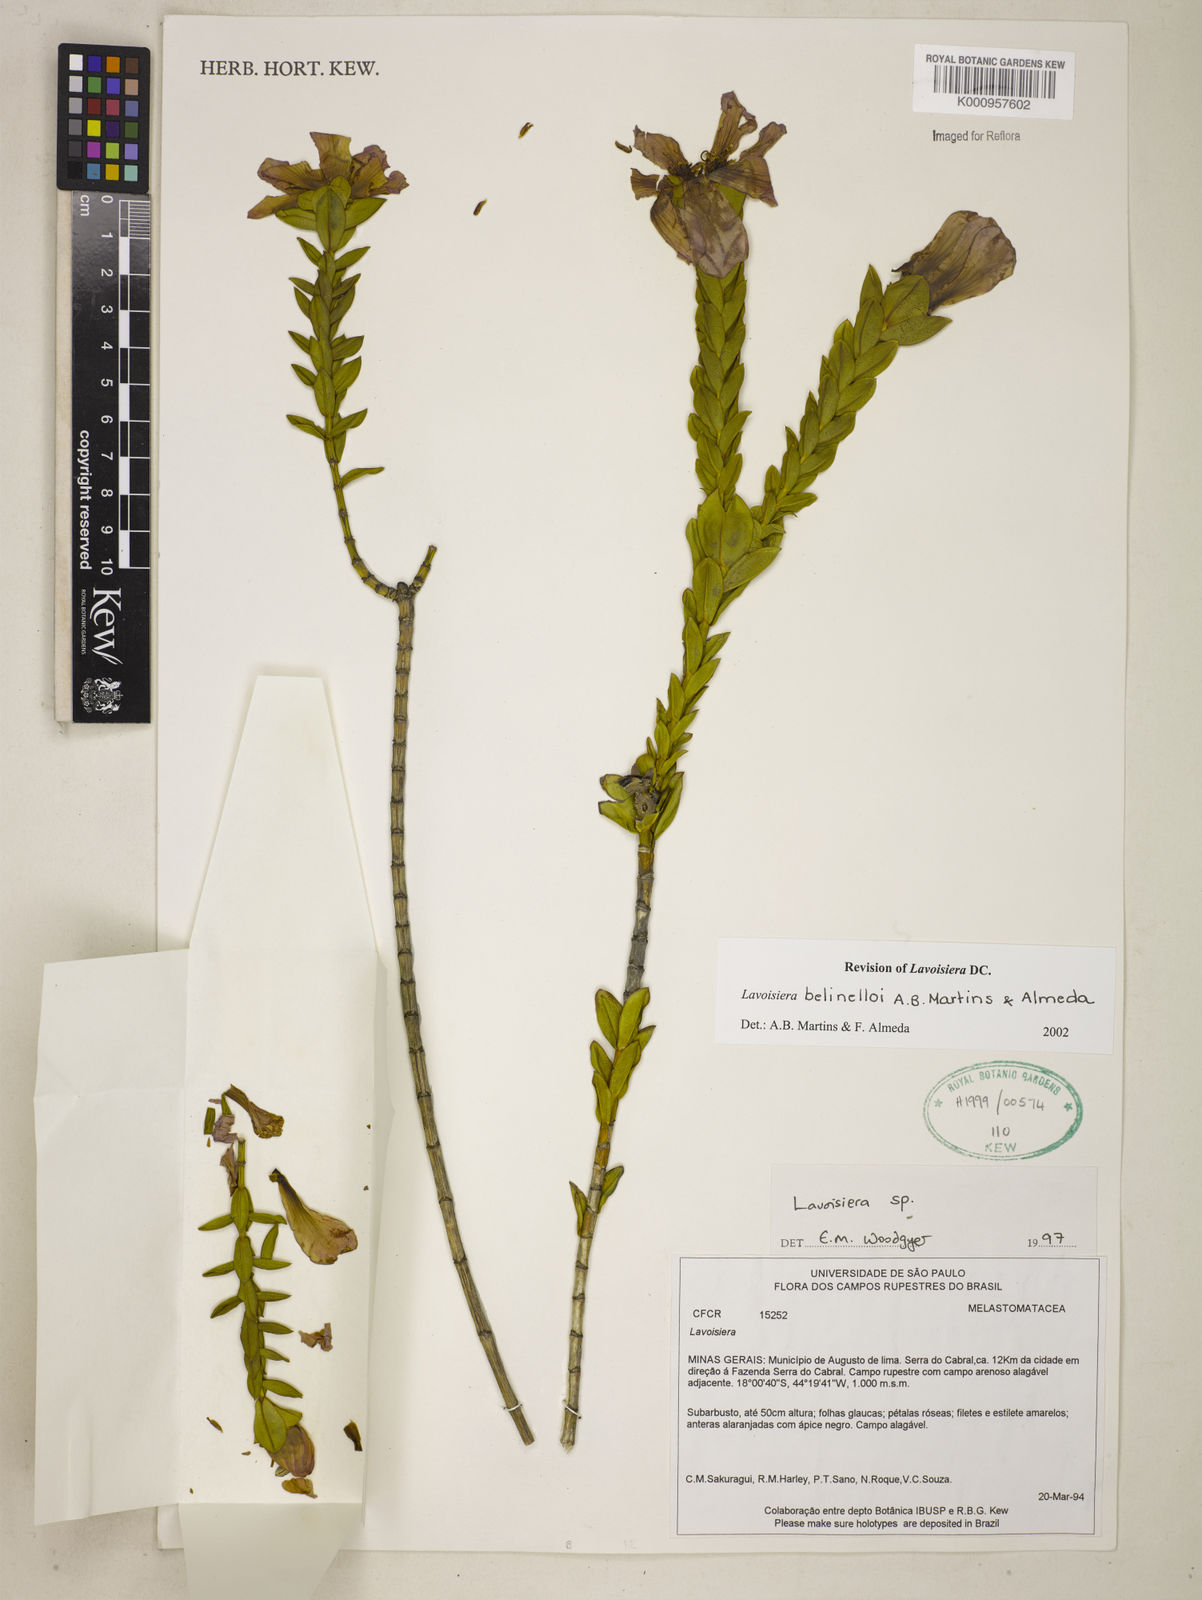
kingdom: Plantae
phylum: Tracheophyta
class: Magnoliopsida
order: Myrtales
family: Melastomataceae
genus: Microlicia
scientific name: Microlicia belinelloi
